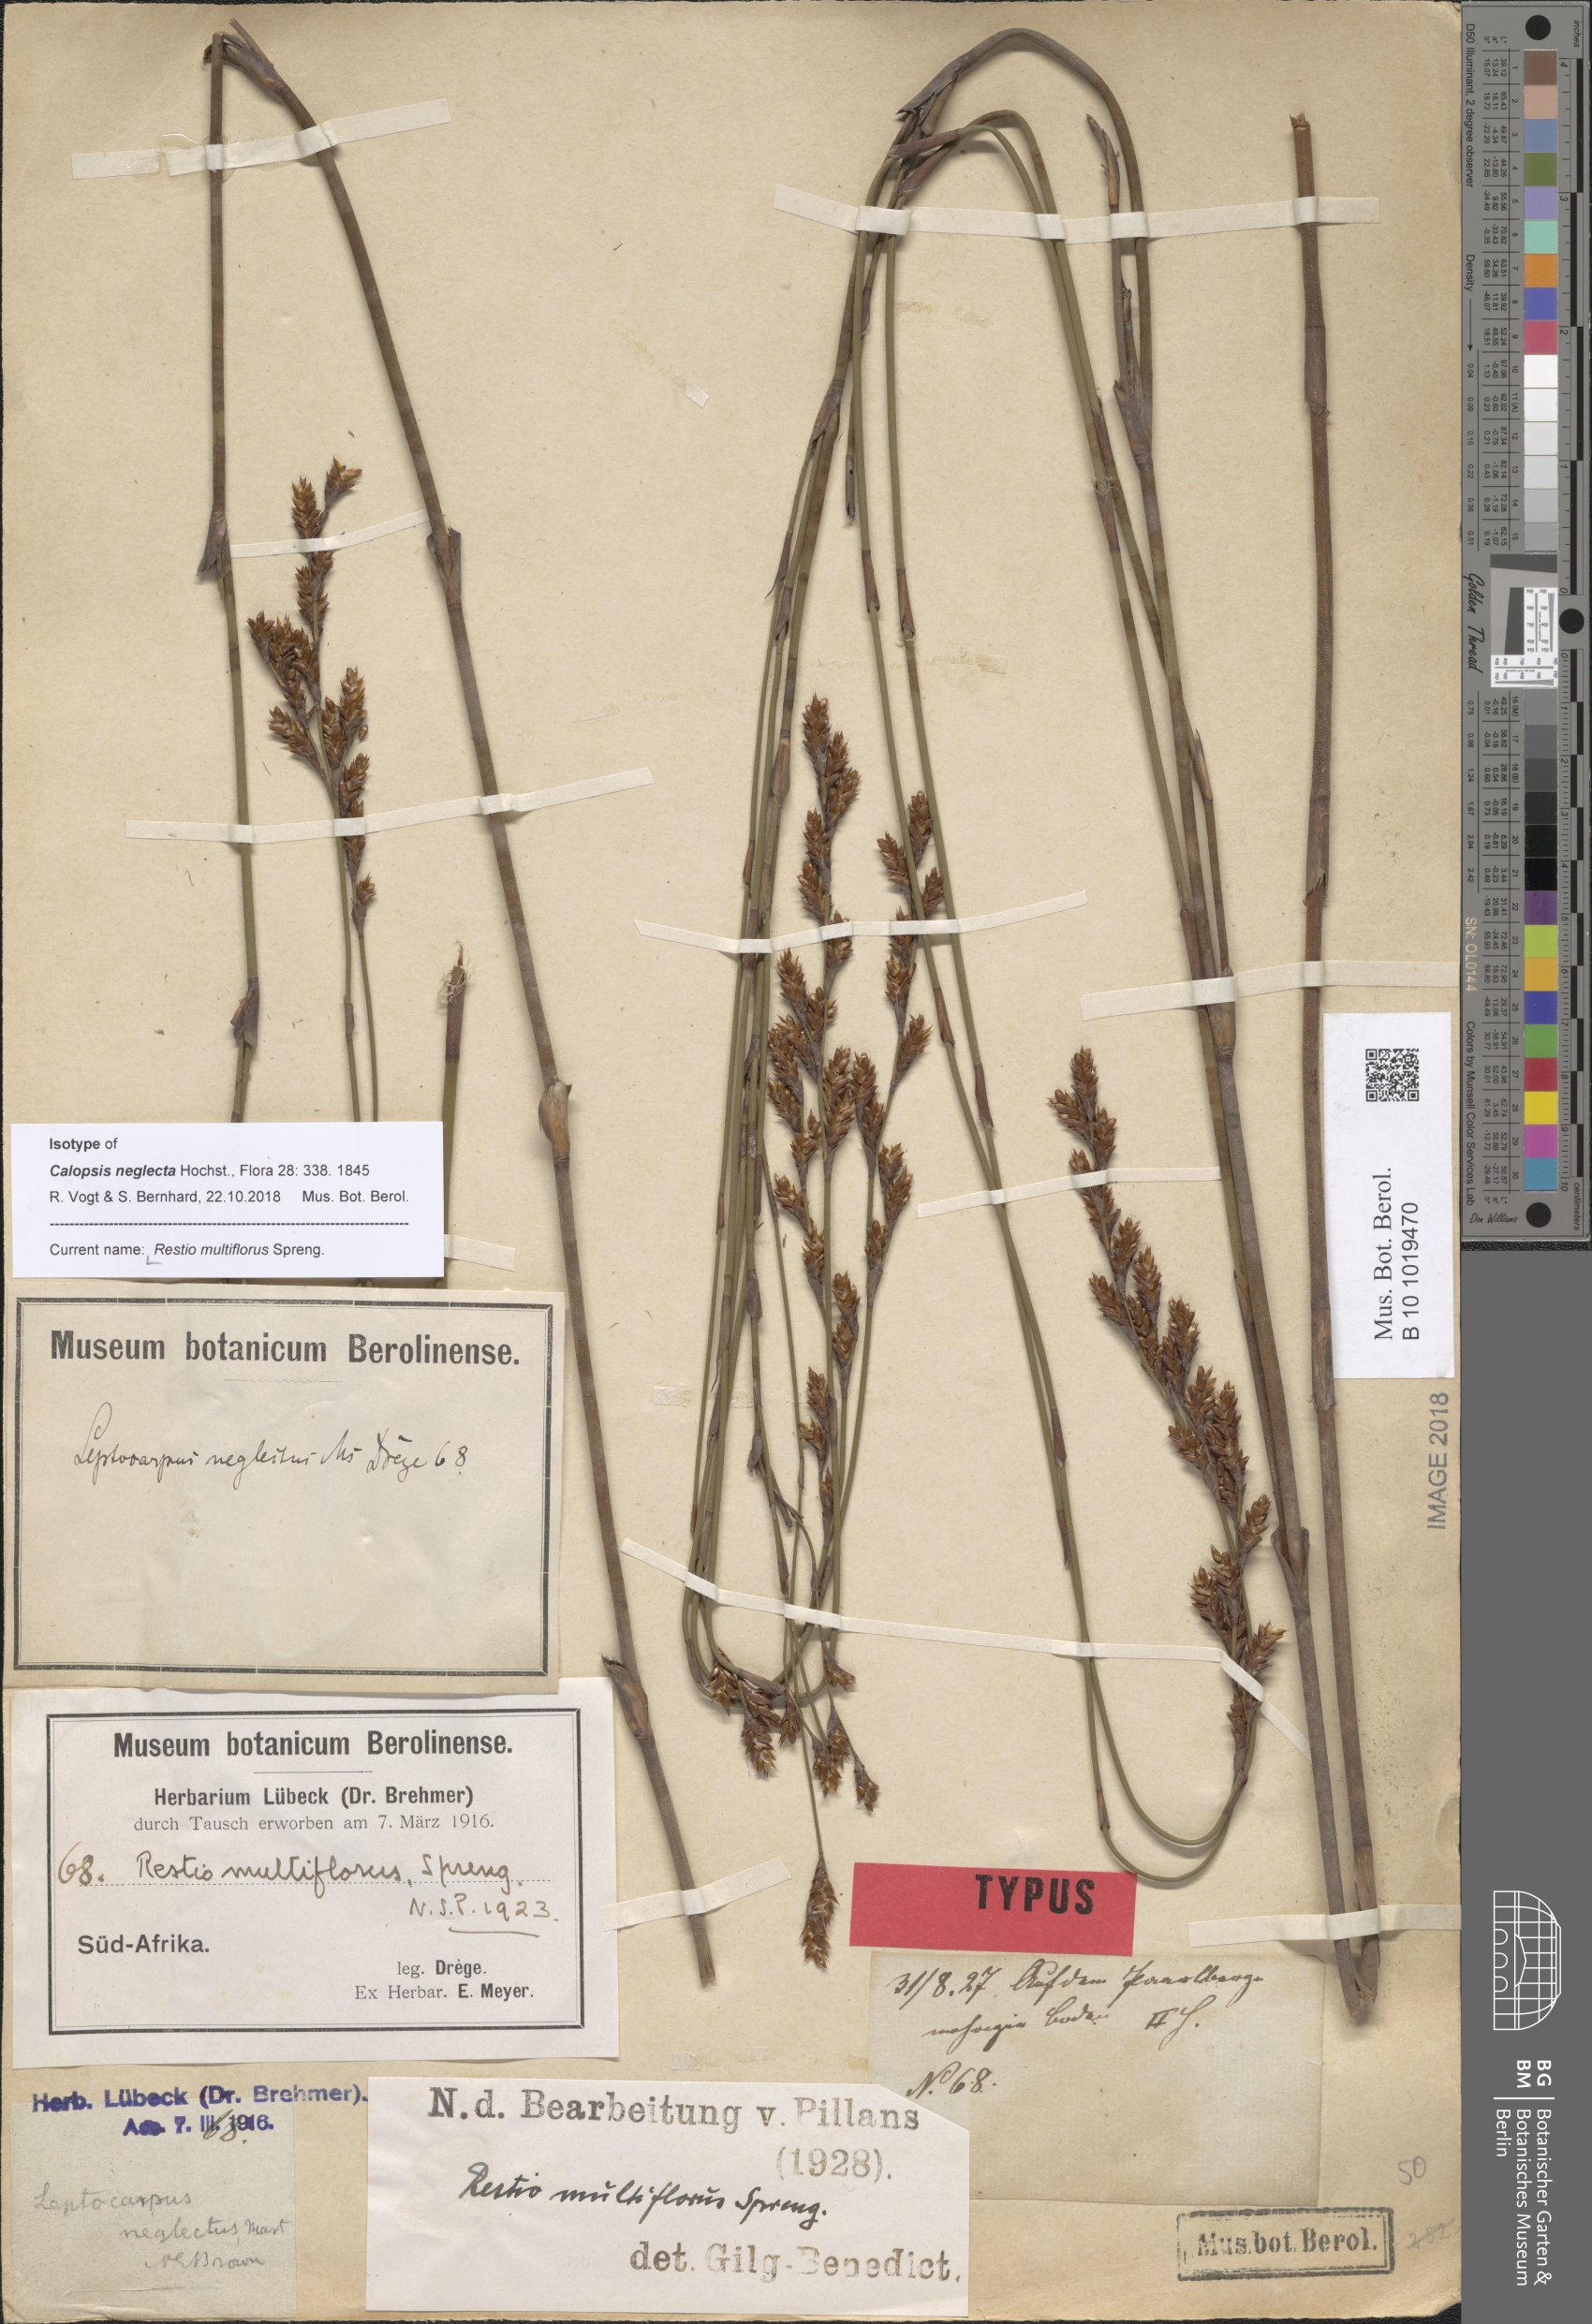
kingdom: Plantae
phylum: Tracheophyta
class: Liliopsida
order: Poales
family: Restionaceae
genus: Restio
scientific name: Restio multiflorus
